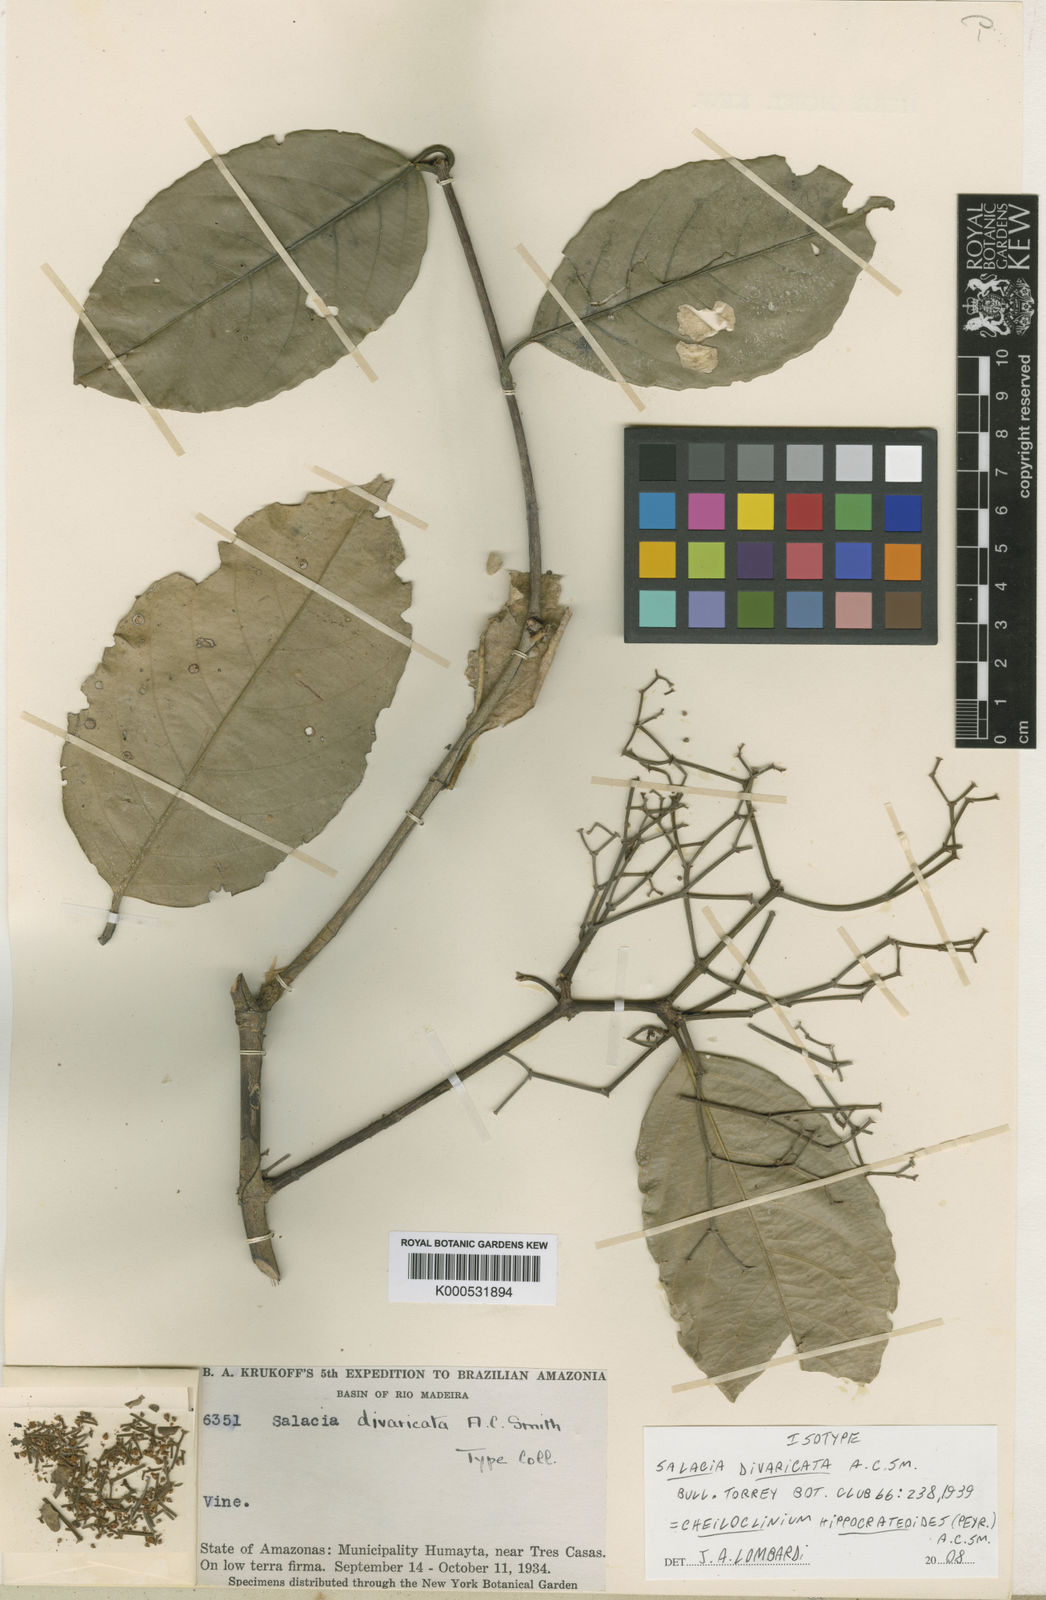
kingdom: Plantae
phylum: Tracheophyta
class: Magnoliopsida
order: Celastrales
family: Celastraceae
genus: Cheiloclinium
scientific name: Cheiloclinium hippocrateoides
